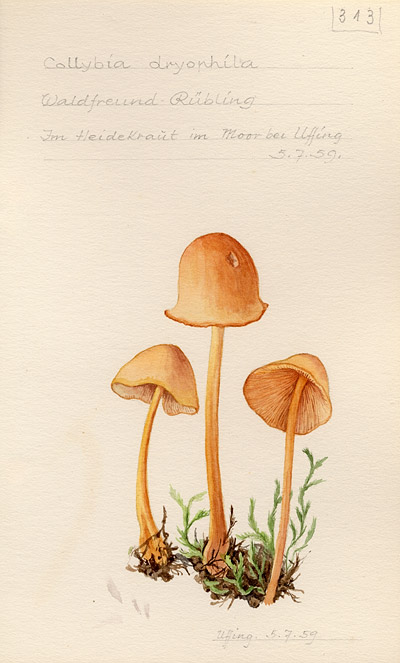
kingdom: Fungi
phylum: Basidiomycota
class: Agaricomycetes
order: Agaricales
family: Omphalotaceae
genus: Gymnopus
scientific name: Gymnopus dryophilus
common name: Penny top
